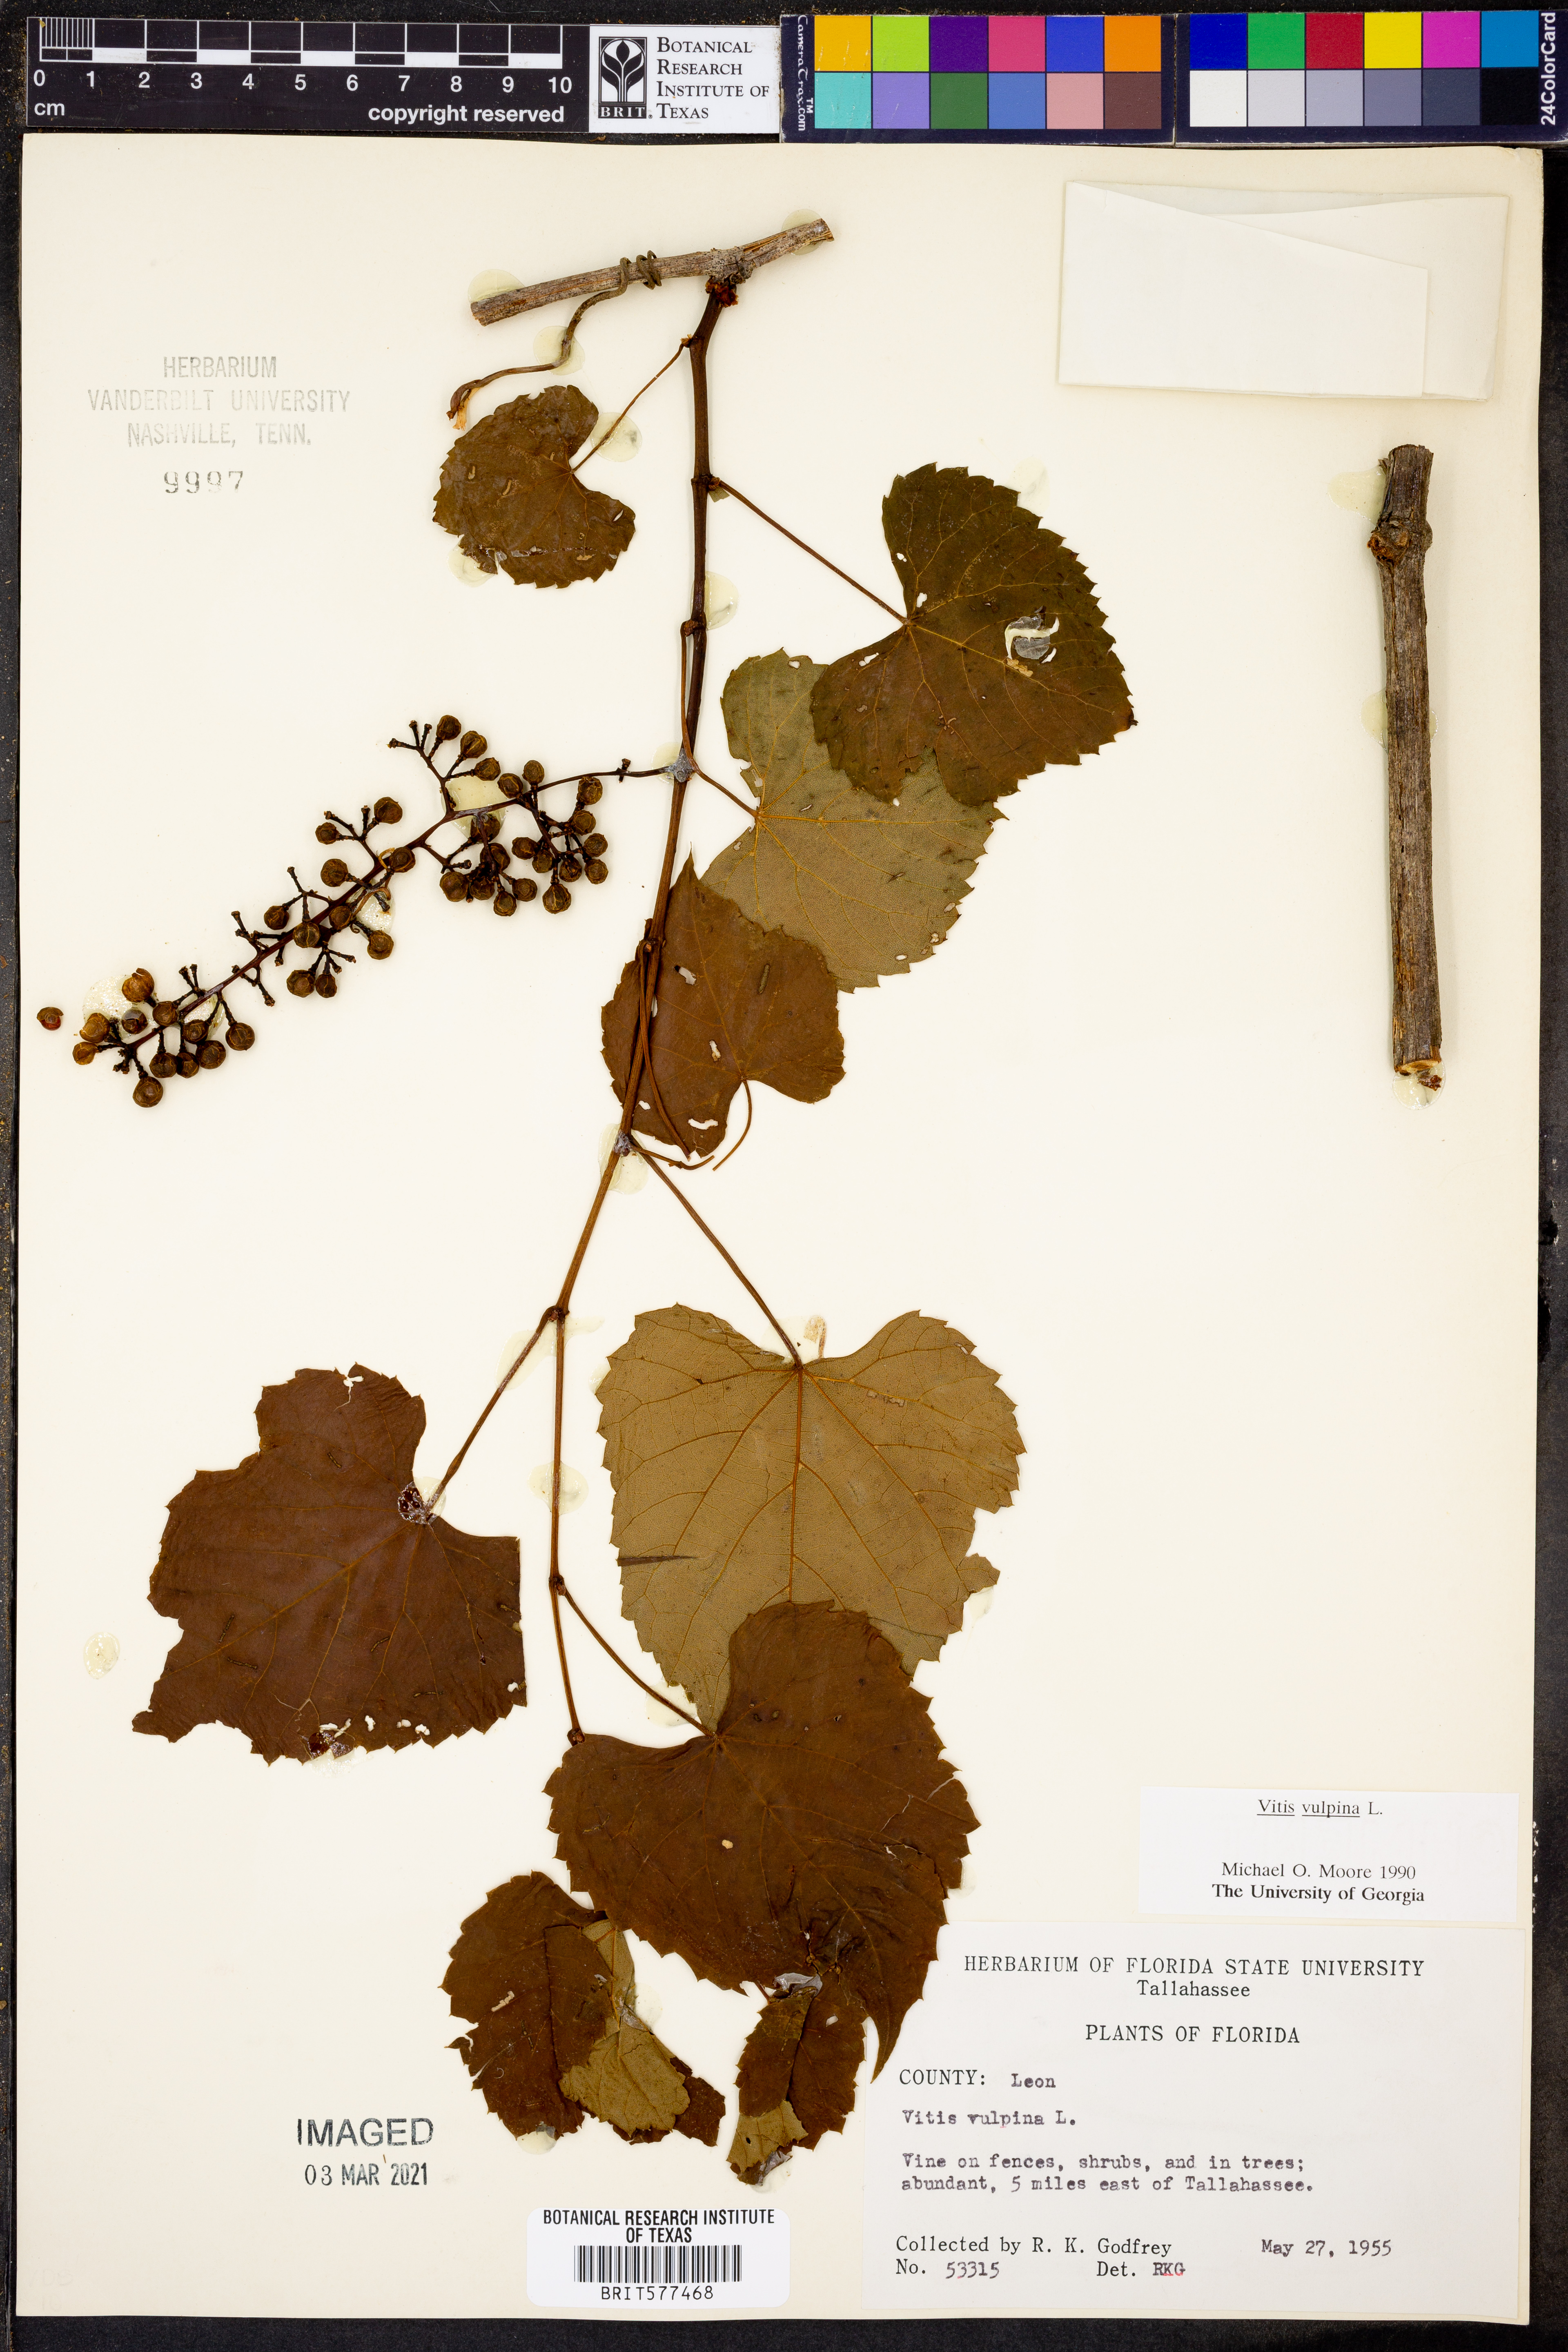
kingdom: Plantae
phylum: Tracheophyta
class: Magnoliopsida
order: Vitales
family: Vitaceae
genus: Vitis
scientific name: Vitis vulpina
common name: Frost grape
